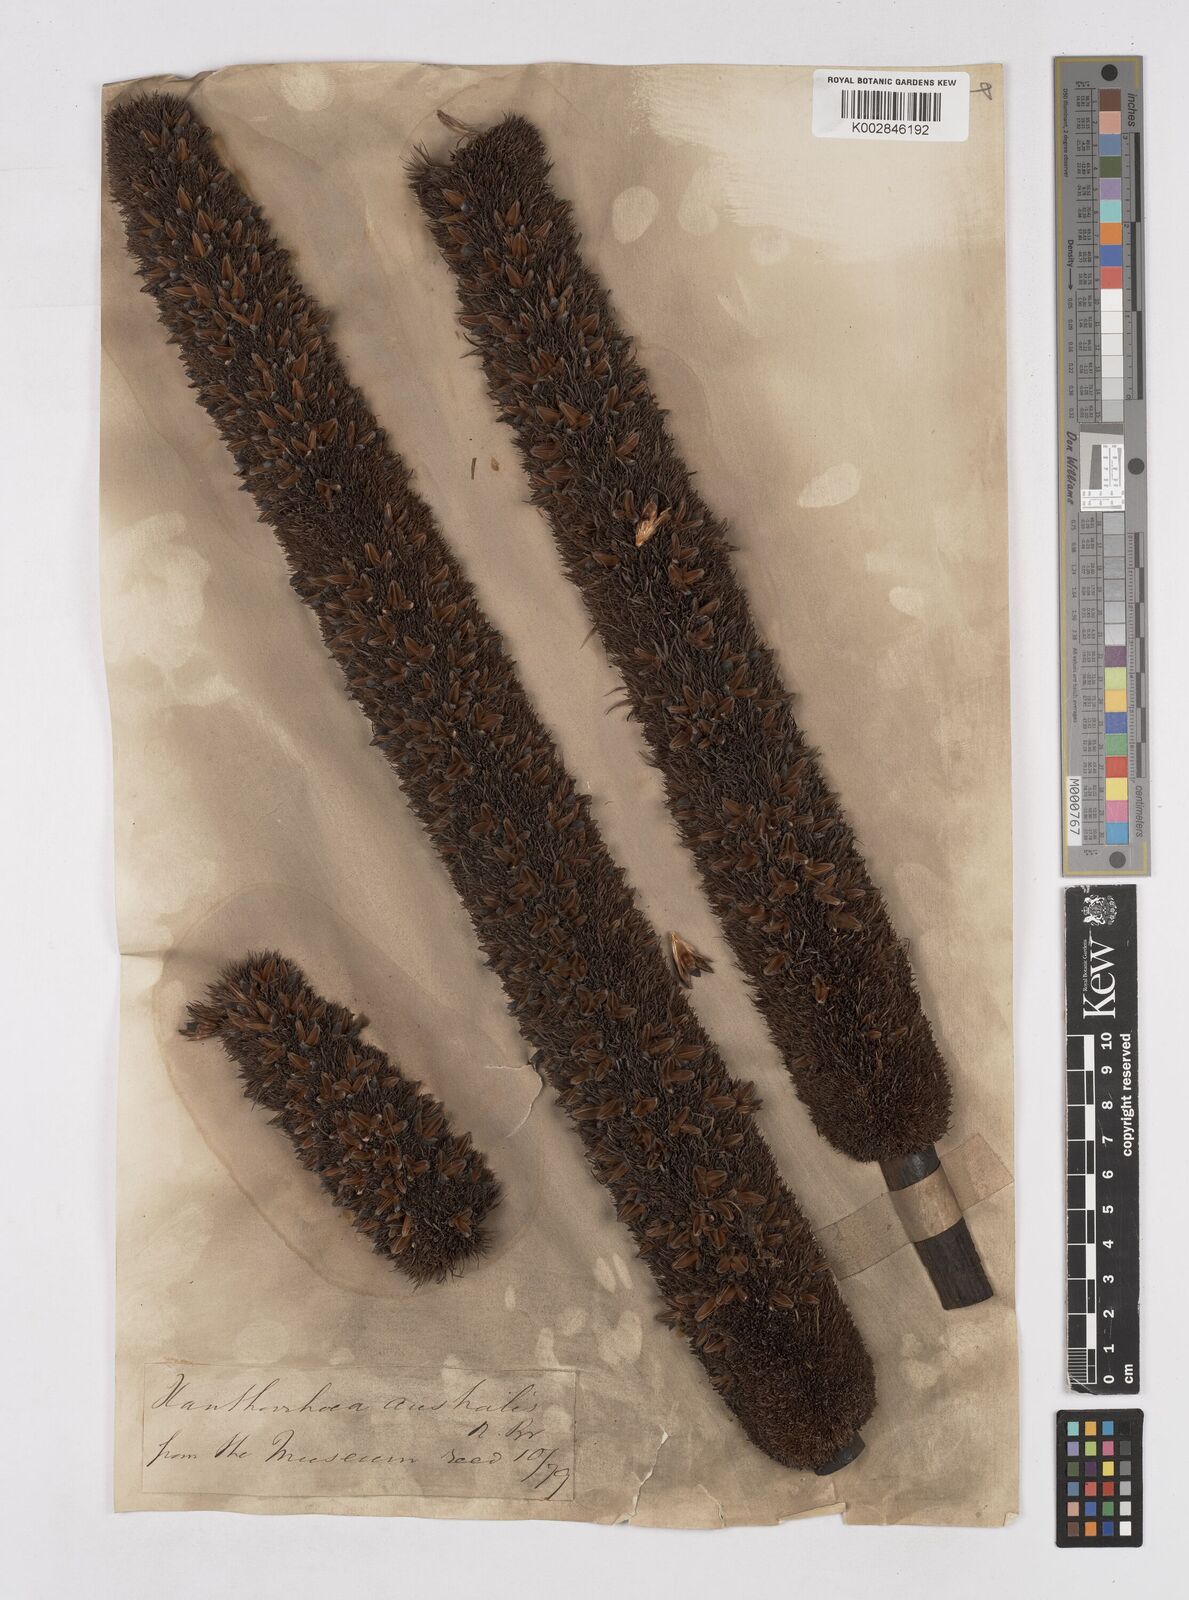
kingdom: Plantae
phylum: Tracheophyta
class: Liliopsida
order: Asparagales
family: Asphodelaceae
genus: Xanthorrhoea
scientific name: Xanthorrhoea australis
